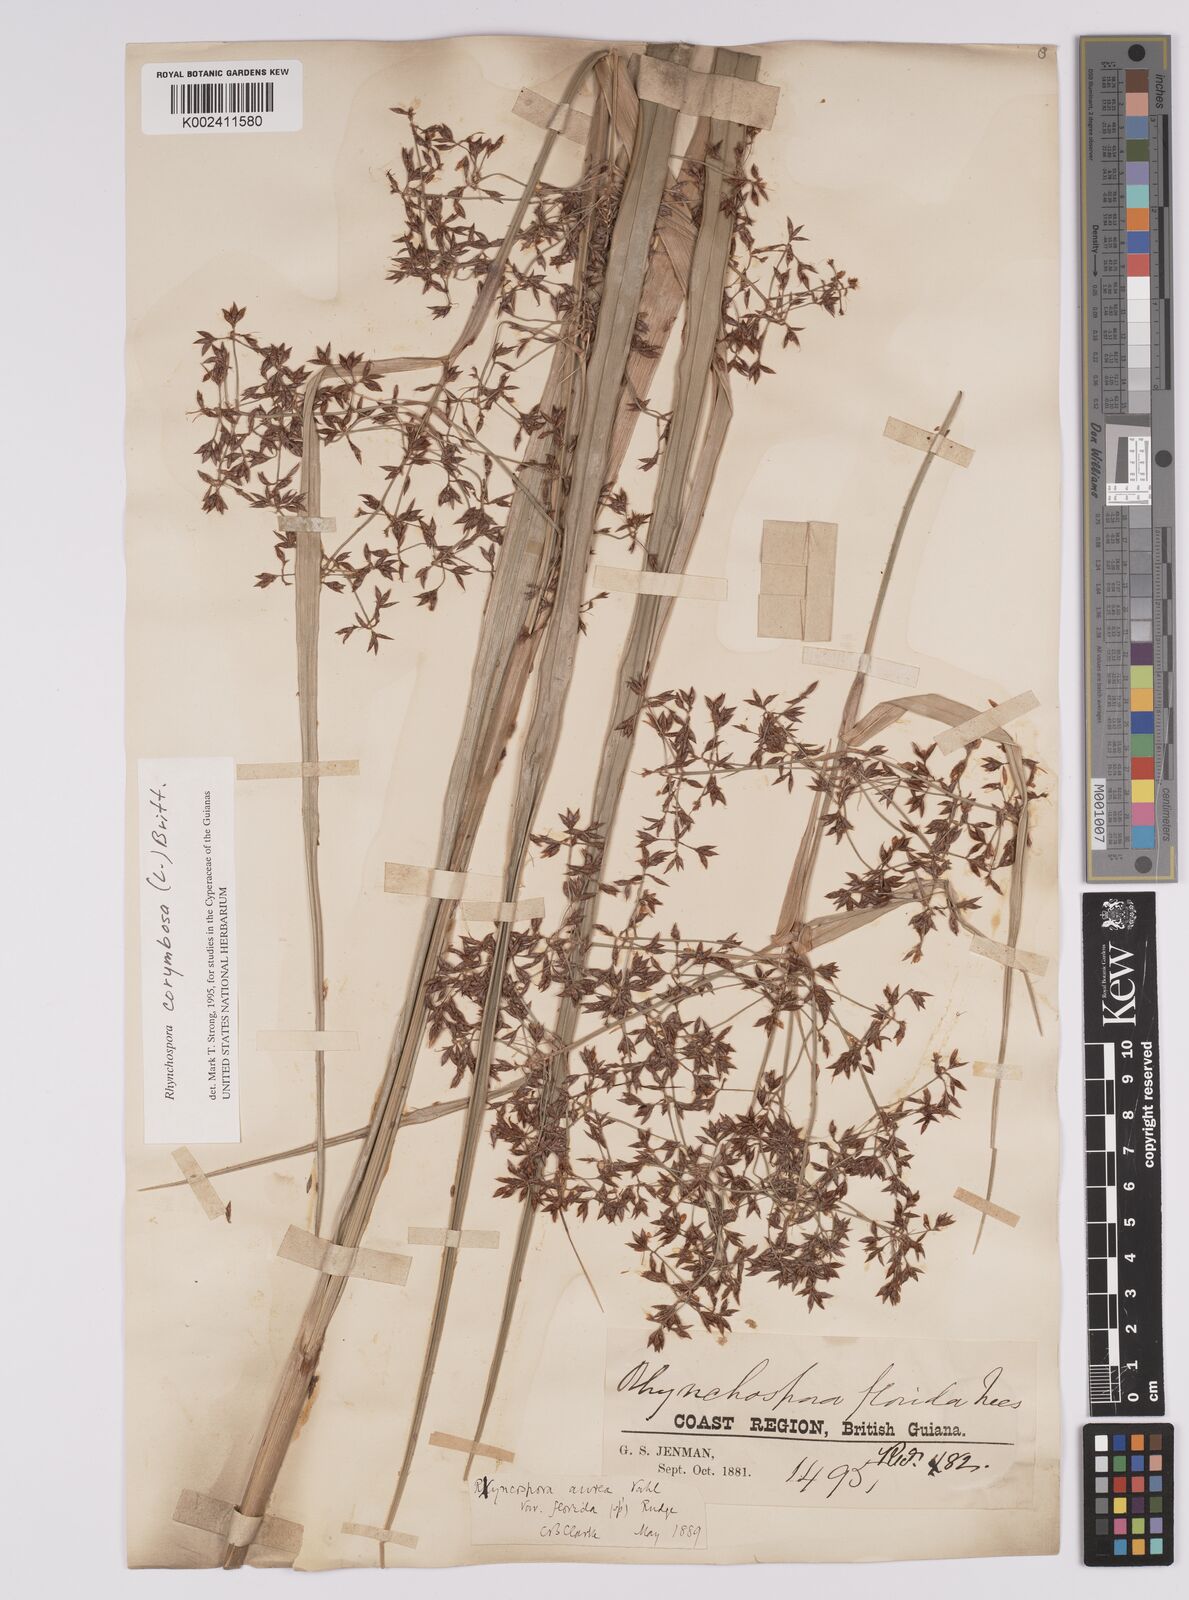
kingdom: Plantae
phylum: Tracheophyta
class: Liliopsida
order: Poales
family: Cyperaceae
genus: Rhynchospora
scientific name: Rhynchospora corymbosa
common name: Golden beak sedge
